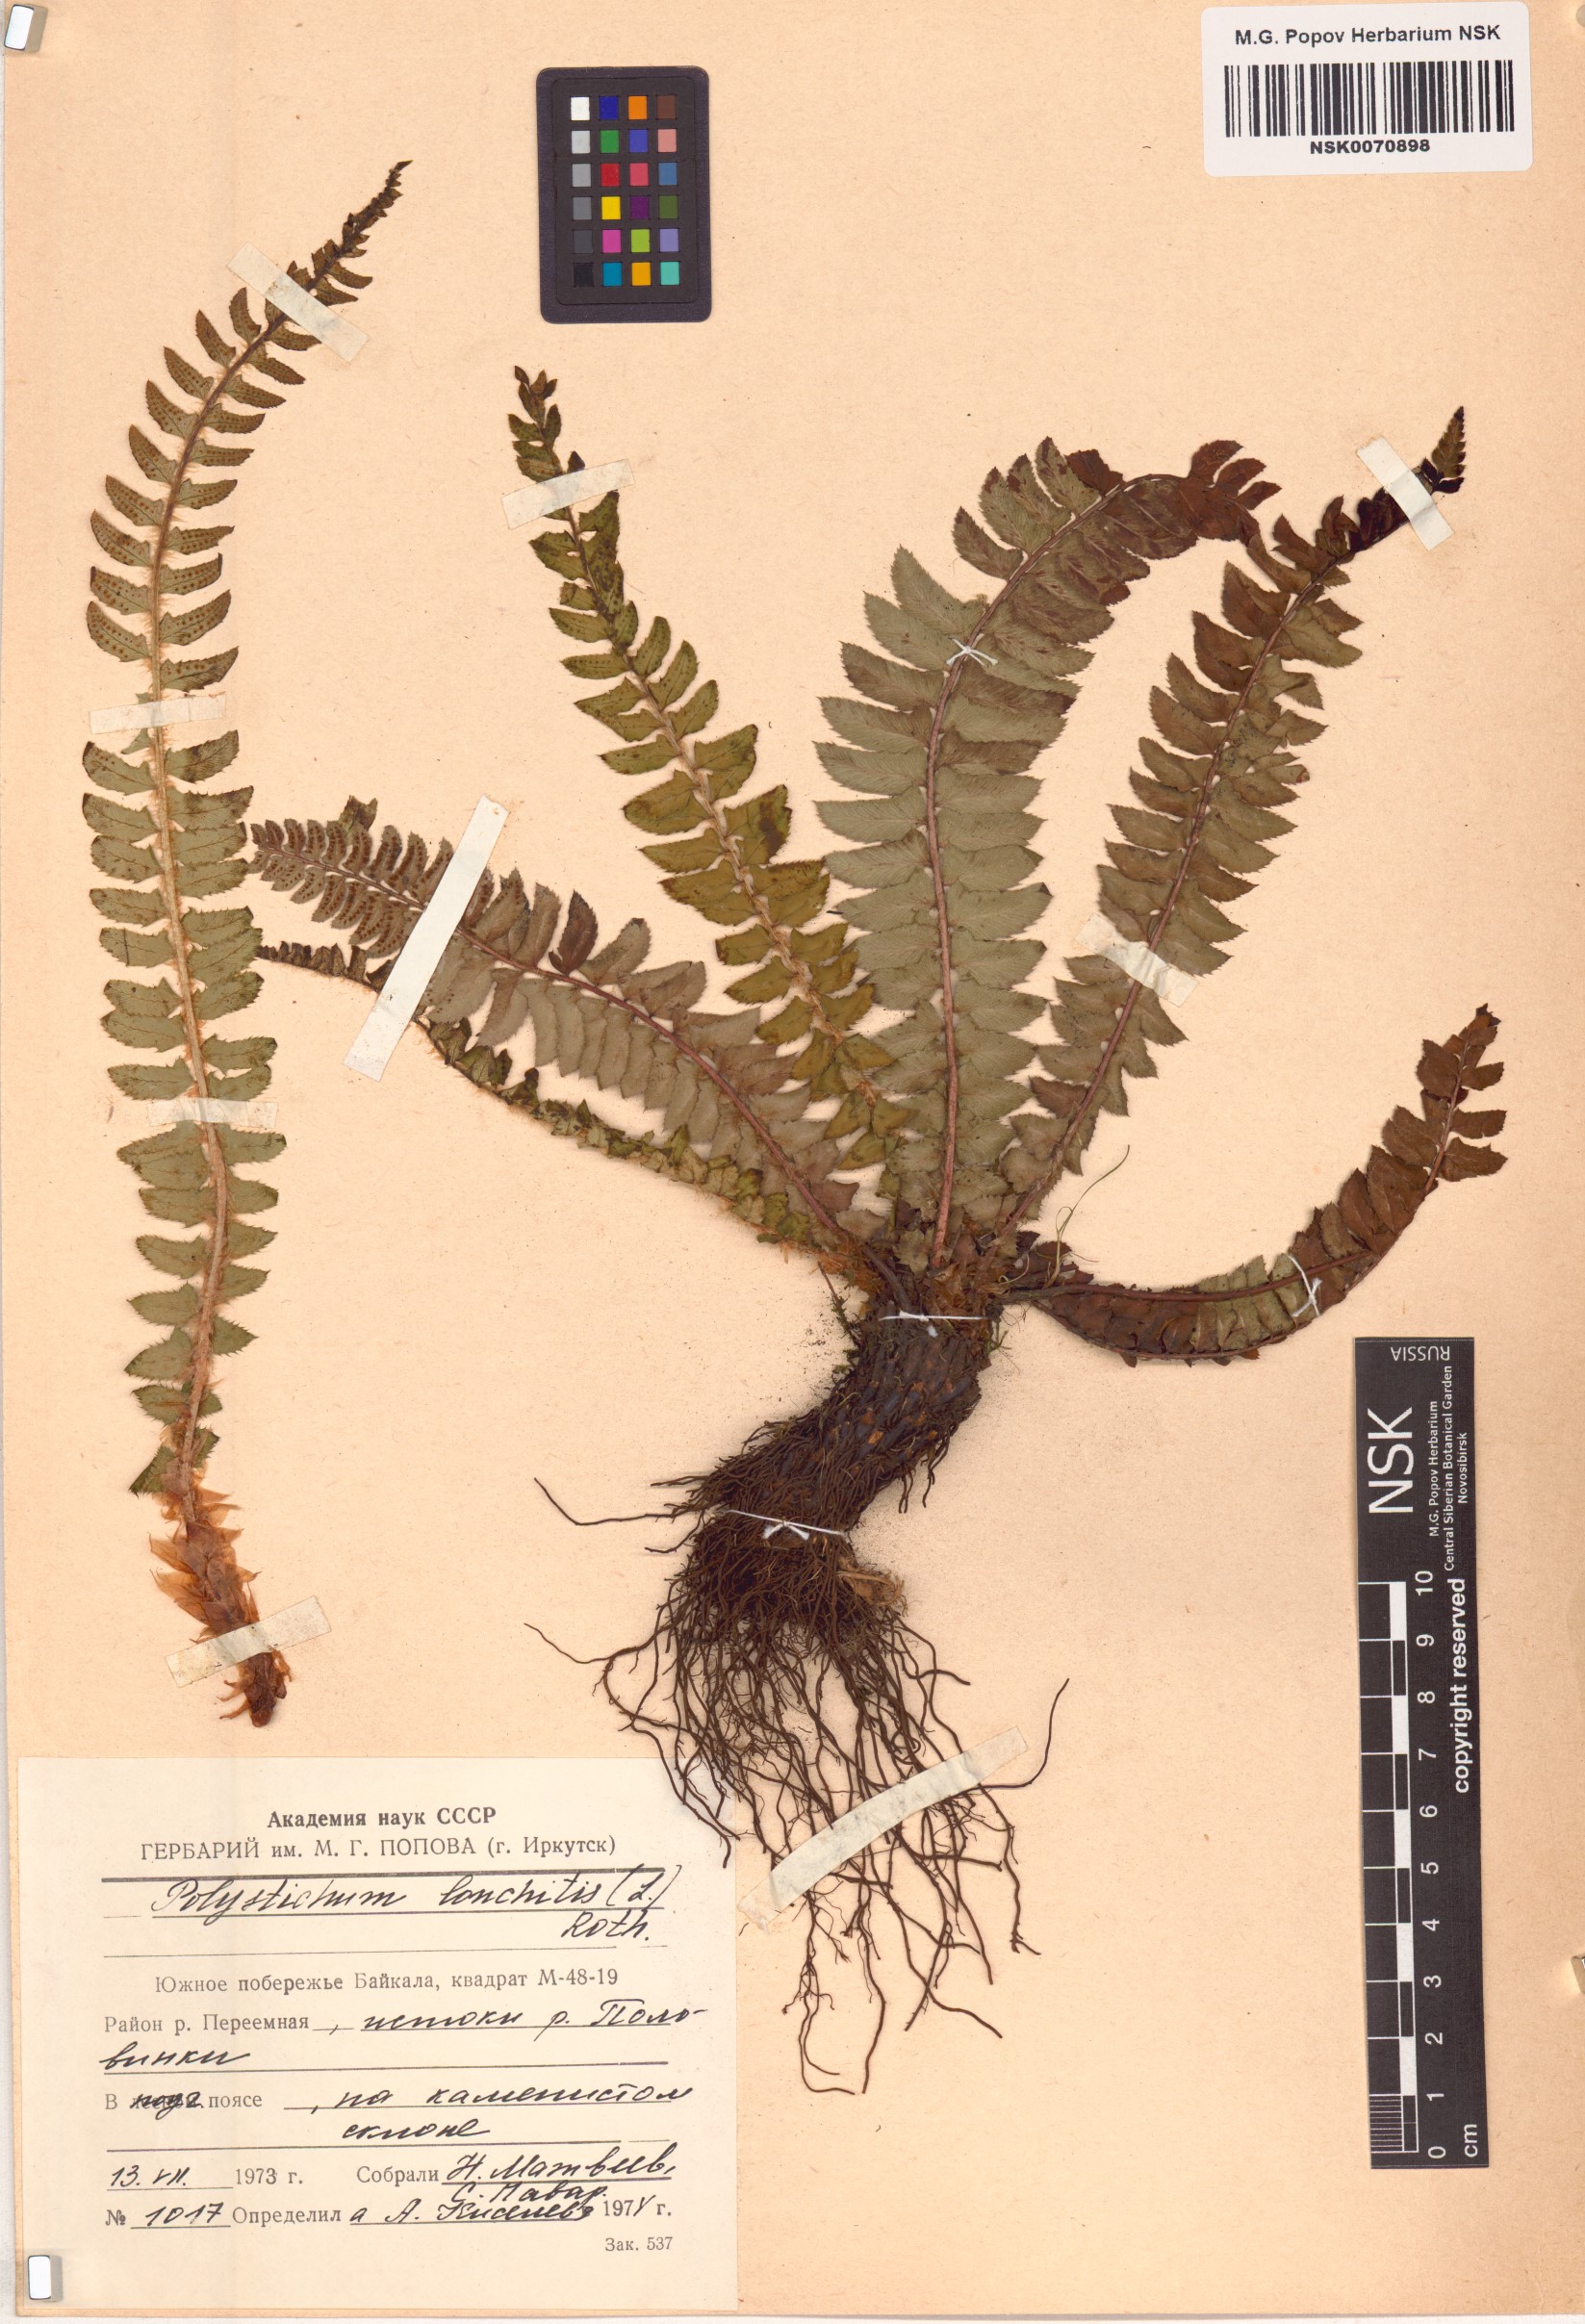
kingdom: Plantae
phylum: Tracheophyta
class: Polypodiopsida
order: Polypodiales
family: Dryopteridaceae
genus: Polystichum
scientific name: Polystichum lonchitis
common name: Holly fern
